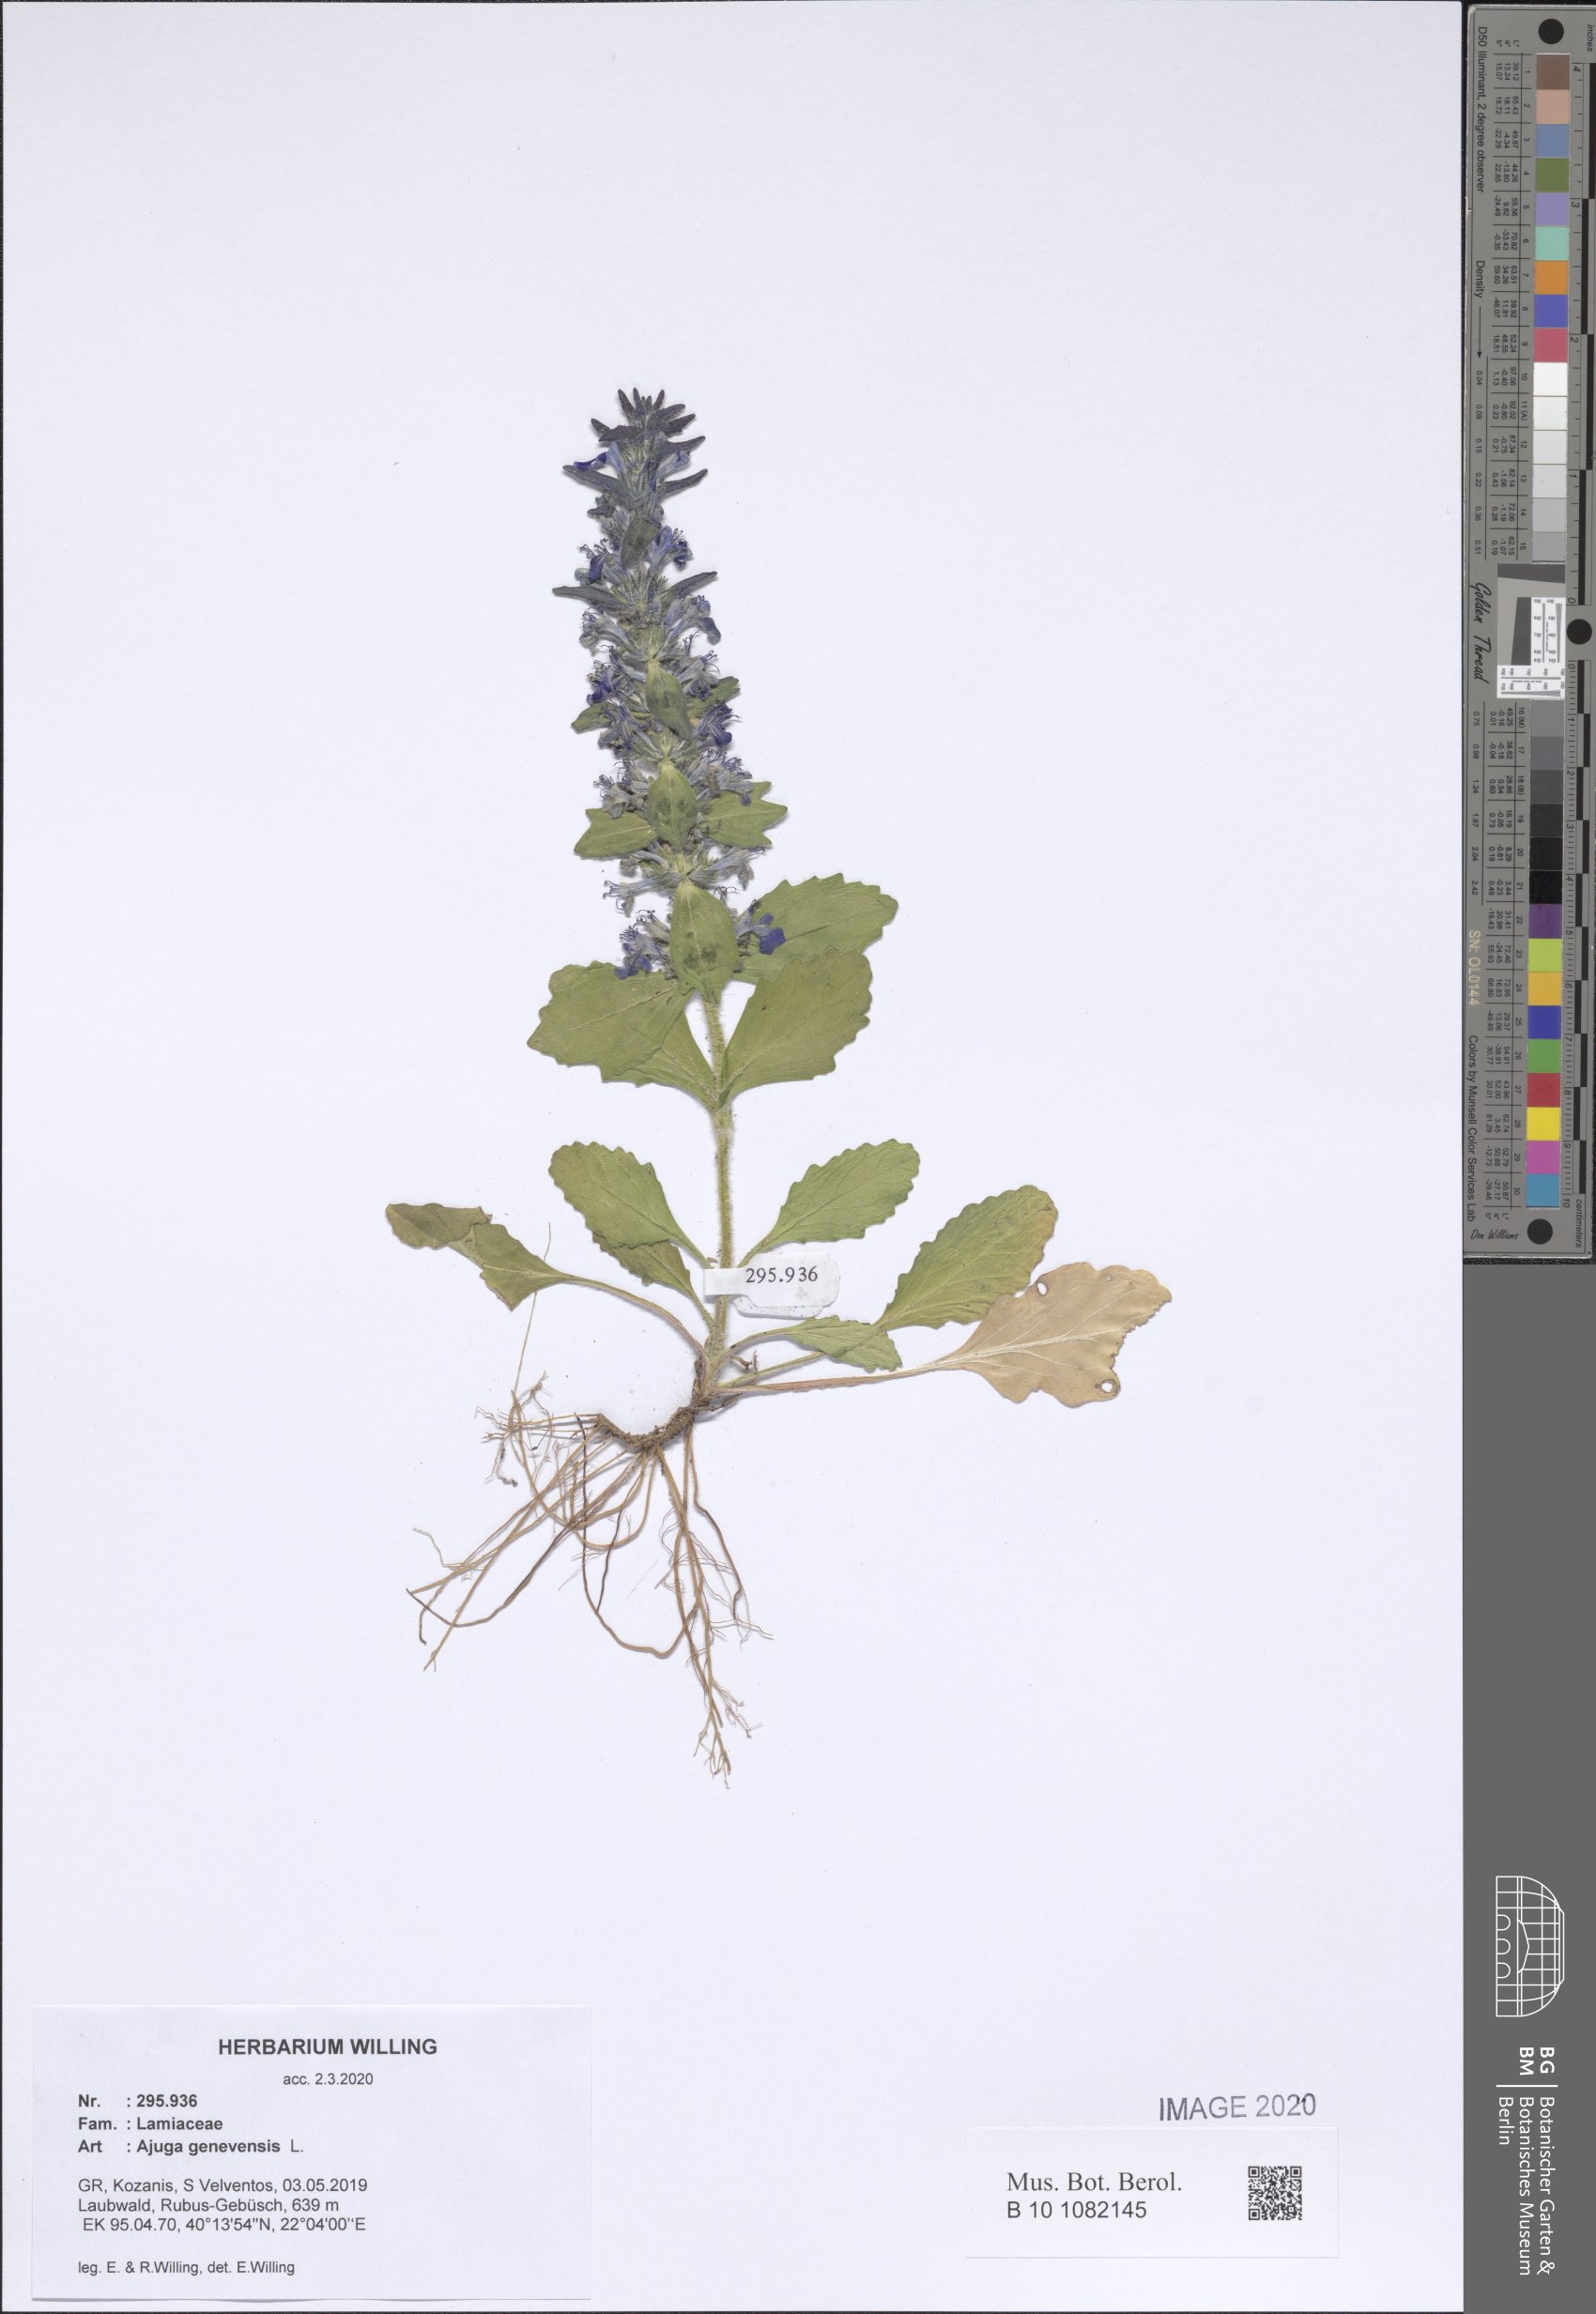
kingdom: Plantae
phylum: Tracheophyta
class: Magnoliopsida
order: Lamiales
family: Lamiaceae
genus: Ajuga
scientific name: Ajuga genevensis
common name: Blue bugle
